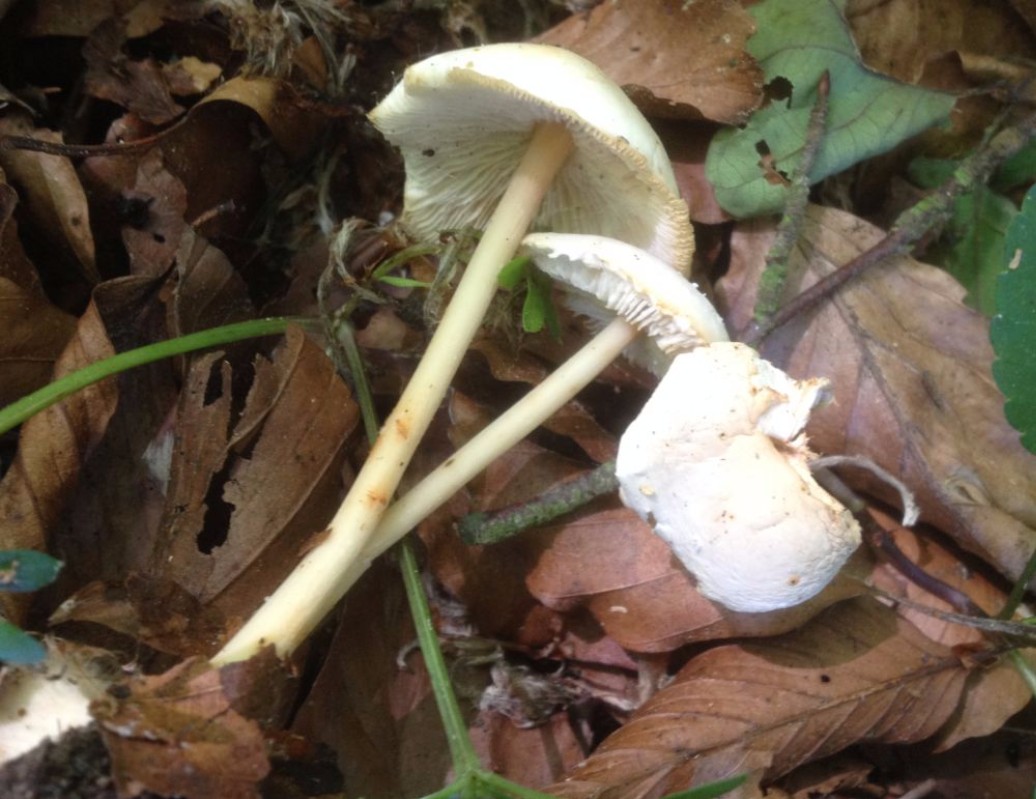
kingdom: Fungi
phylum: Basidiomycota
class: Agaricomycetes
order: Agaricales
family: Omphalotaceae
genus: Gymnopus
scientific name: Gymnopus aquosus
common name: bleg fladhat
